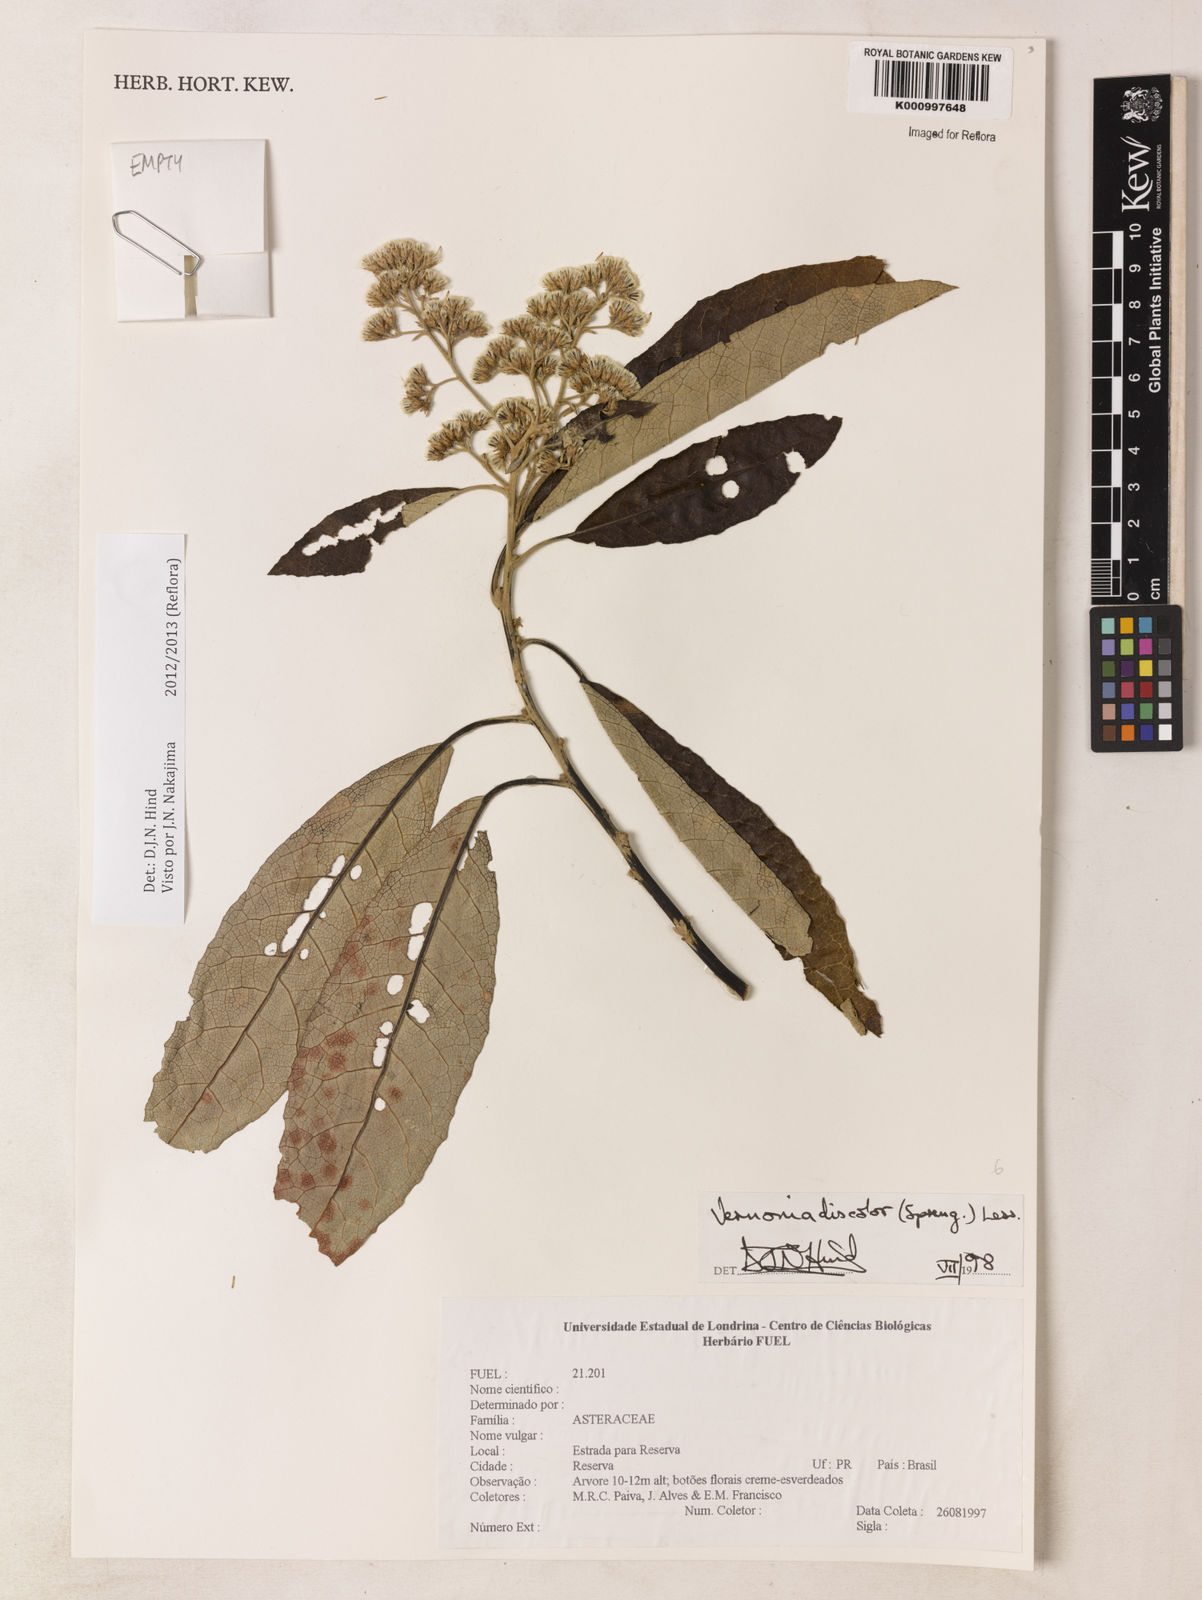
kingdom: Plantae
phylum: Tracheophyta
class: Magnoliopsida
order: Asterales
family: Asteraceae
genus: Vernonanthura
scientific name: Vernonanthura discolor
